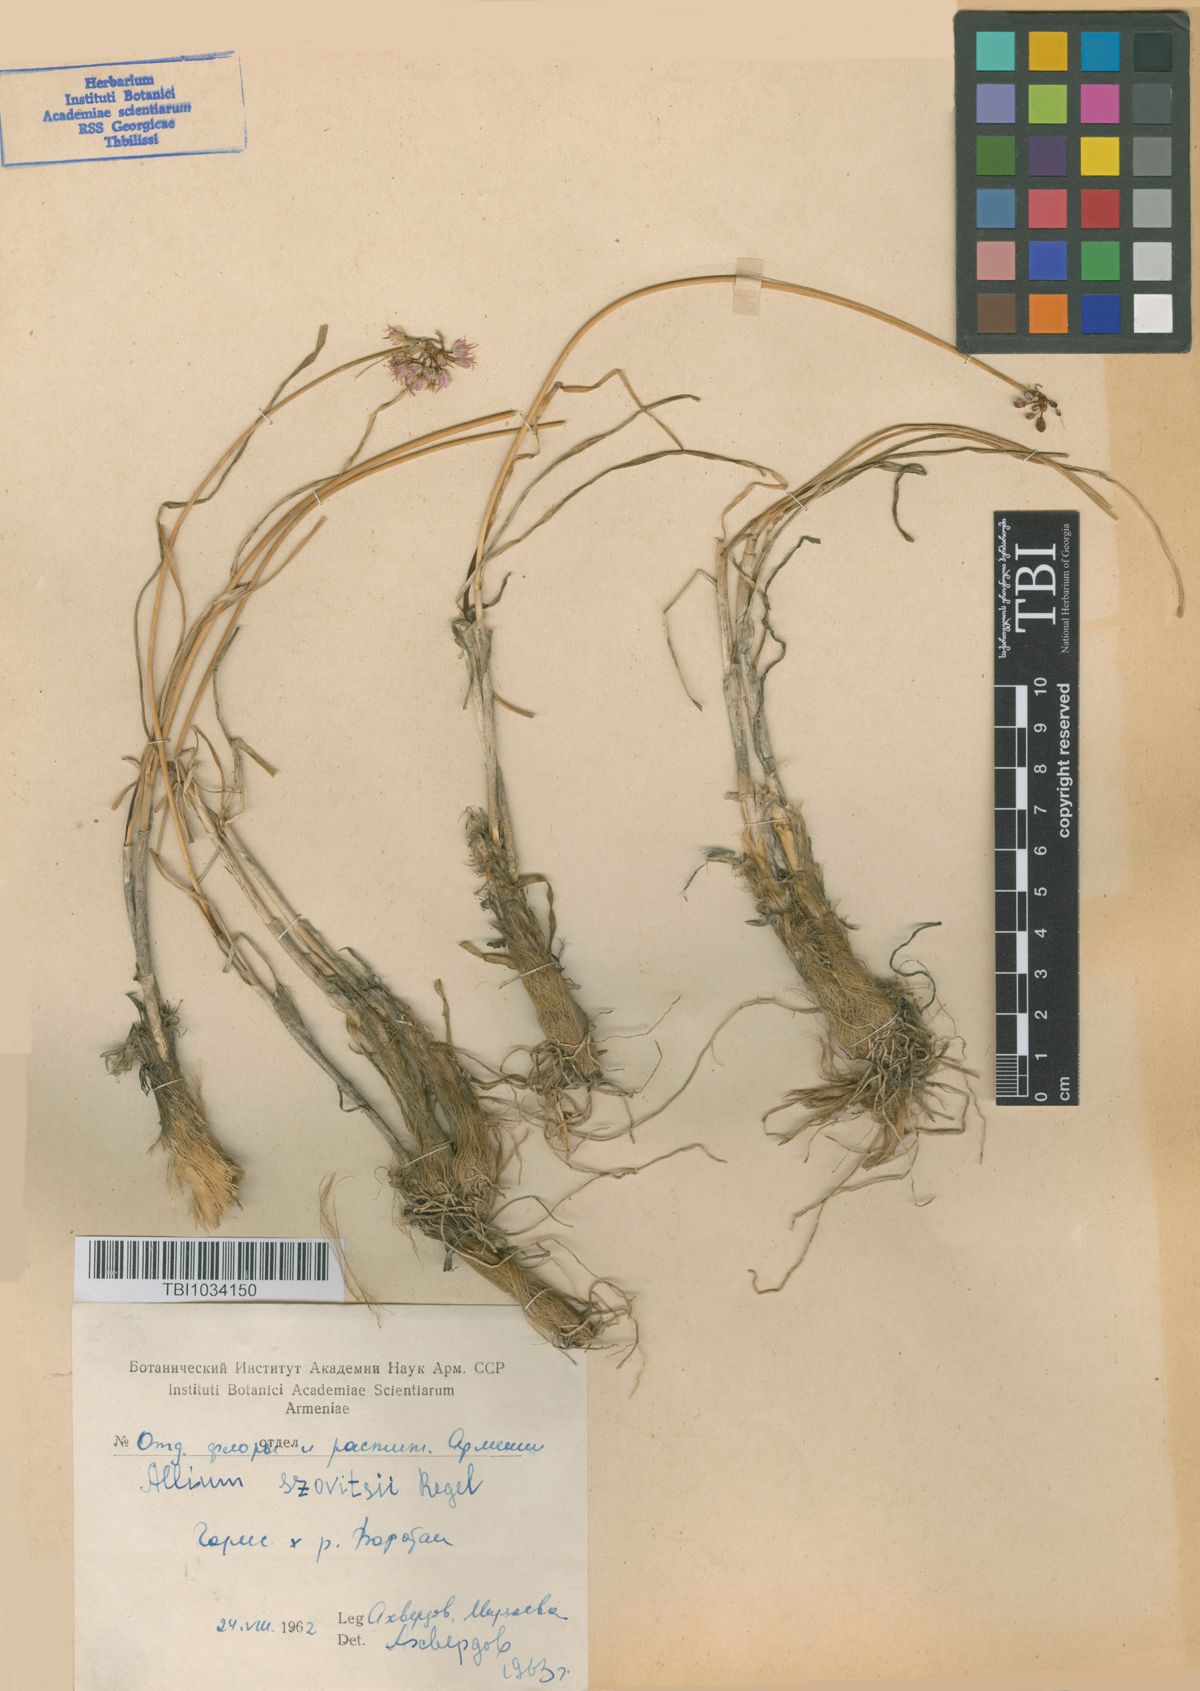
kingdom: Plantae
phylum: Tracheophyta
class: Liliopsida
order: Asparagales
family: Amaryllidaceae
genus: Allium
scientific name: Allium szovitsii
